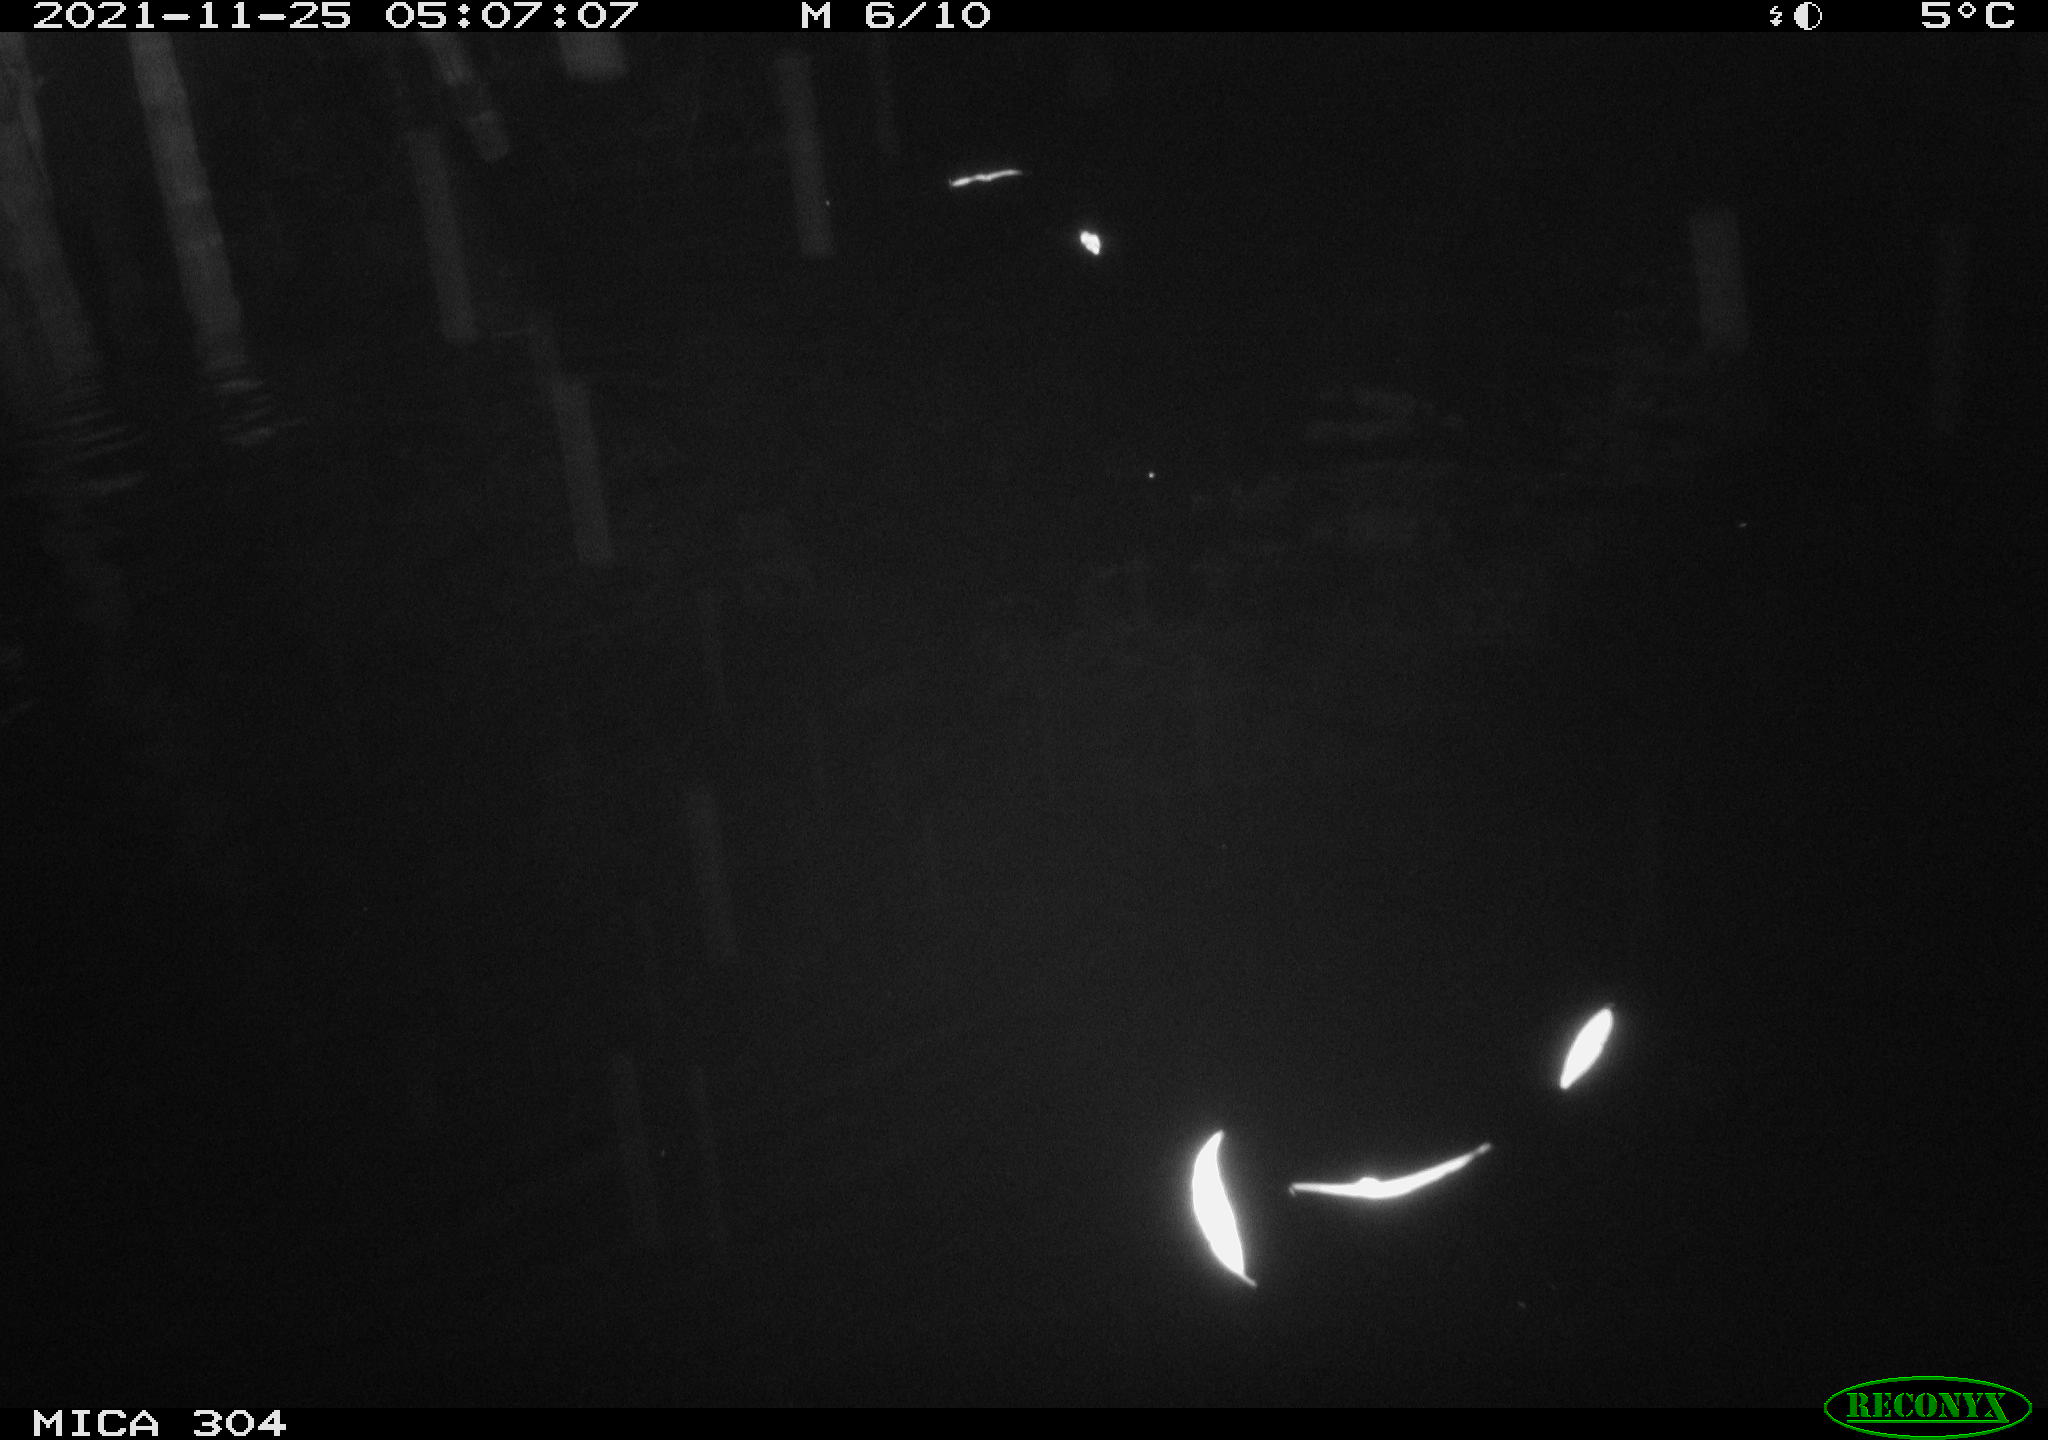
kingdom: Animalia
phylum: Chordata
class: Mammalia
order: Rodentia
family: Muridae
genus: Rattus
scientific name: Rattus norvegicus
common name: Brown rat
